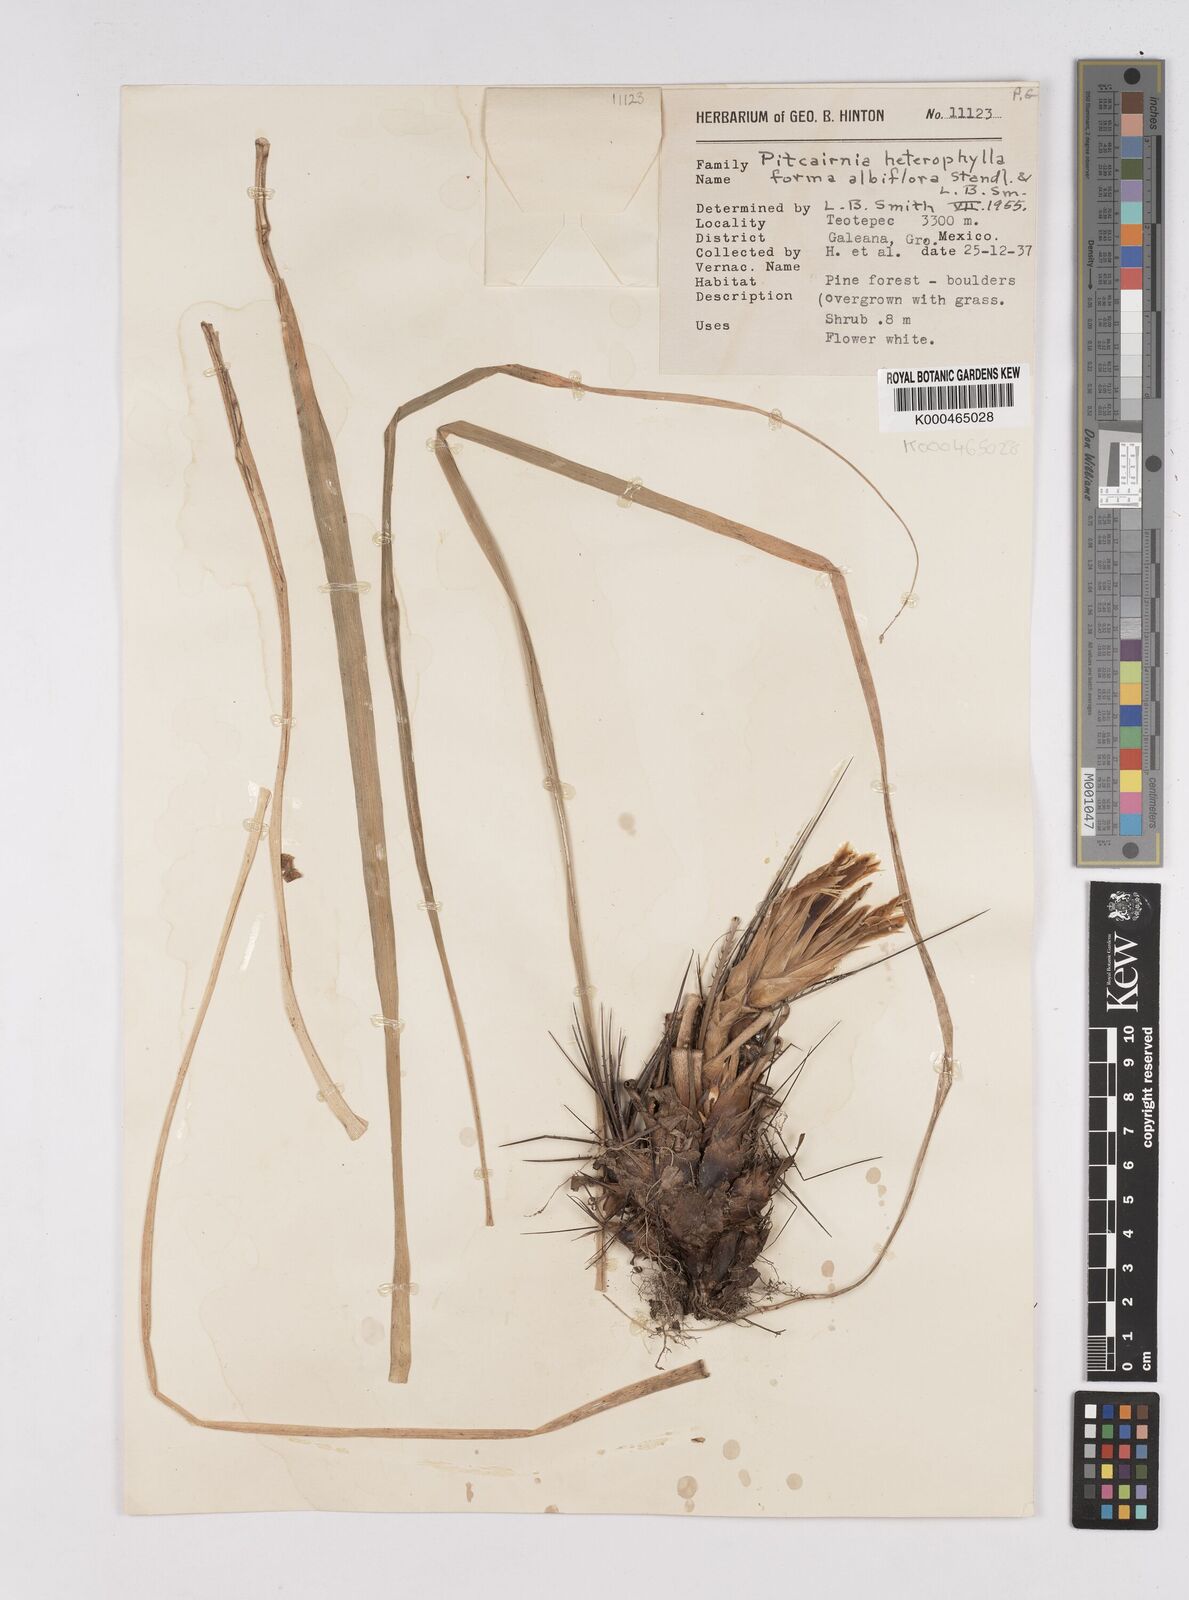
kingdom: Plantae
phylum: Tracheophyta
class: Liliopsida
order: Poales
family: Bromeliaceae
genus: Pitcairnia
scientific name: Pitcairnia heterophylla
